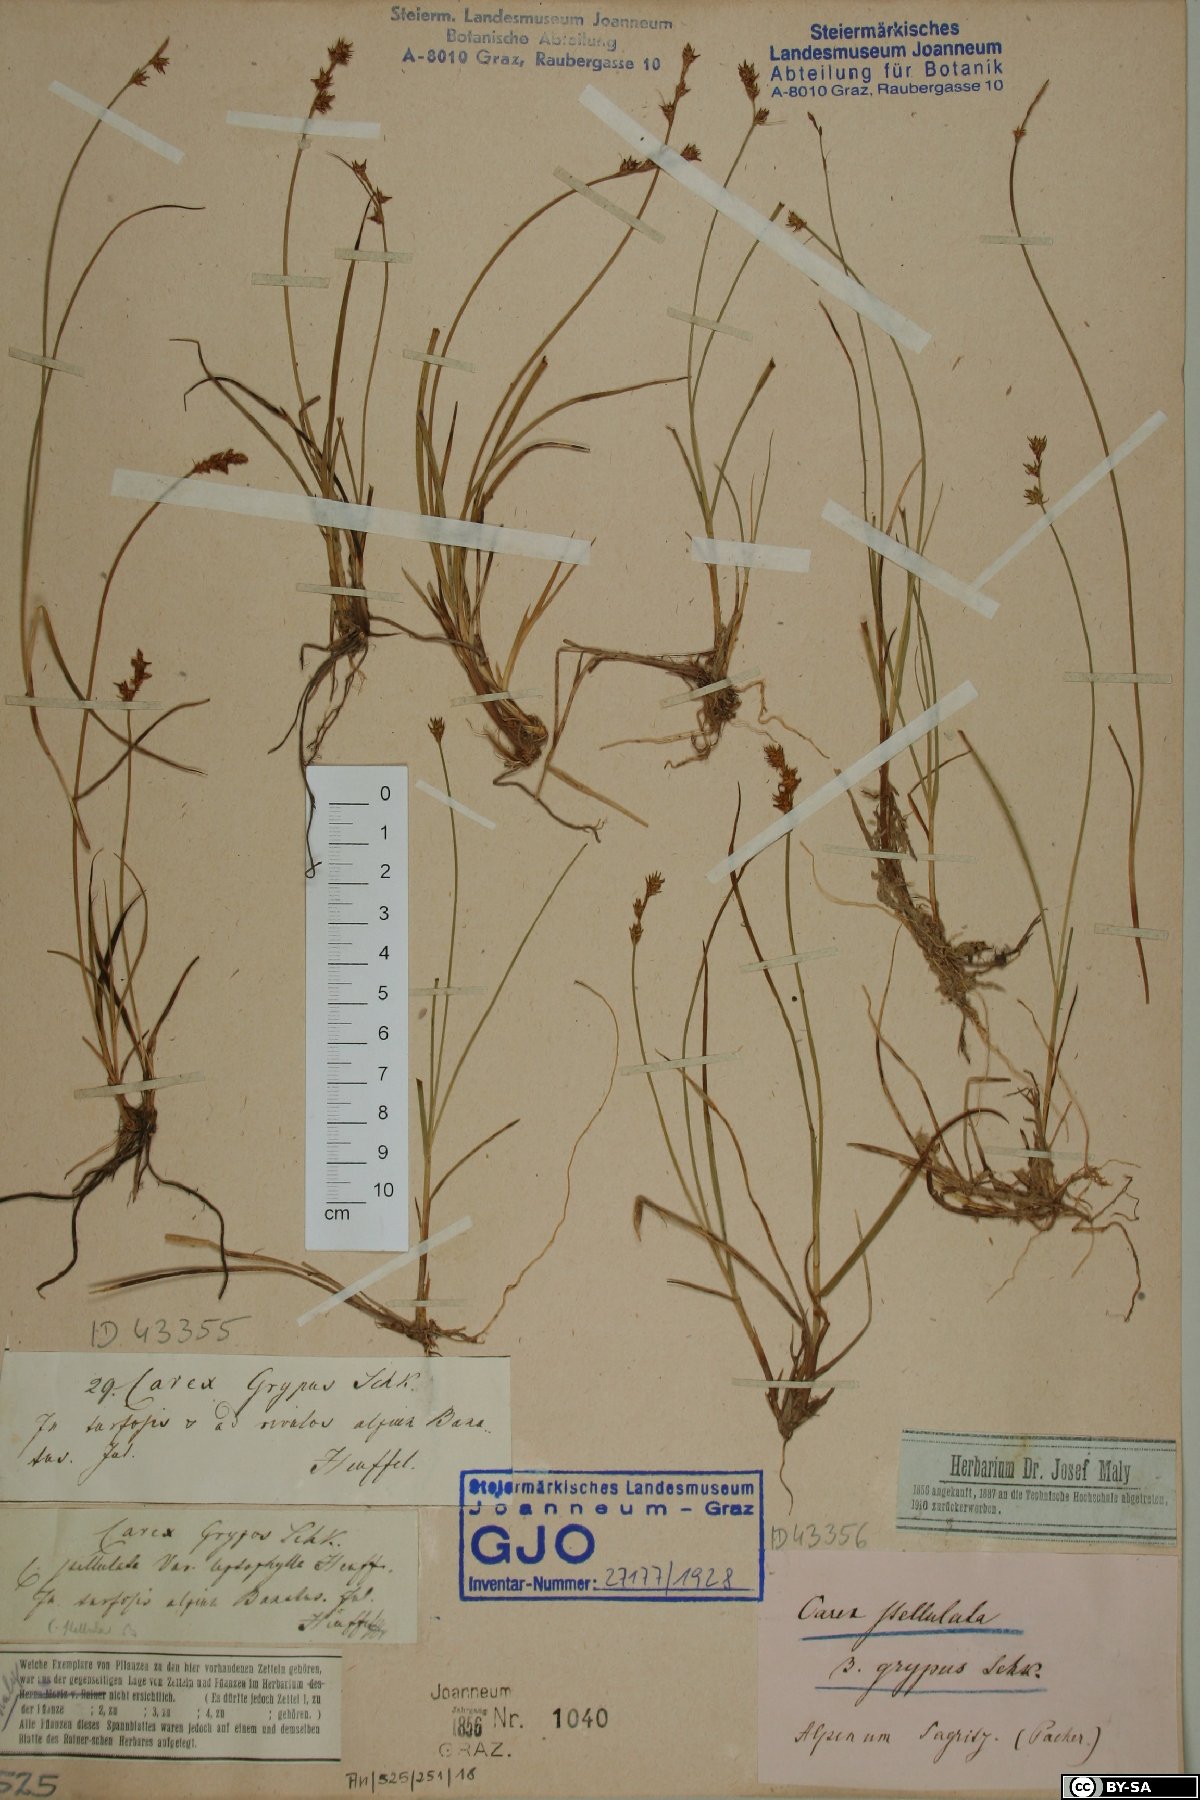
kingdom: Plantae
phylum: Tracheophyta
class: Liliopsida
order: Poales
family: Cyperaceae
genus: Carex
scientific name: Carex echinata
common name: Star sedge
